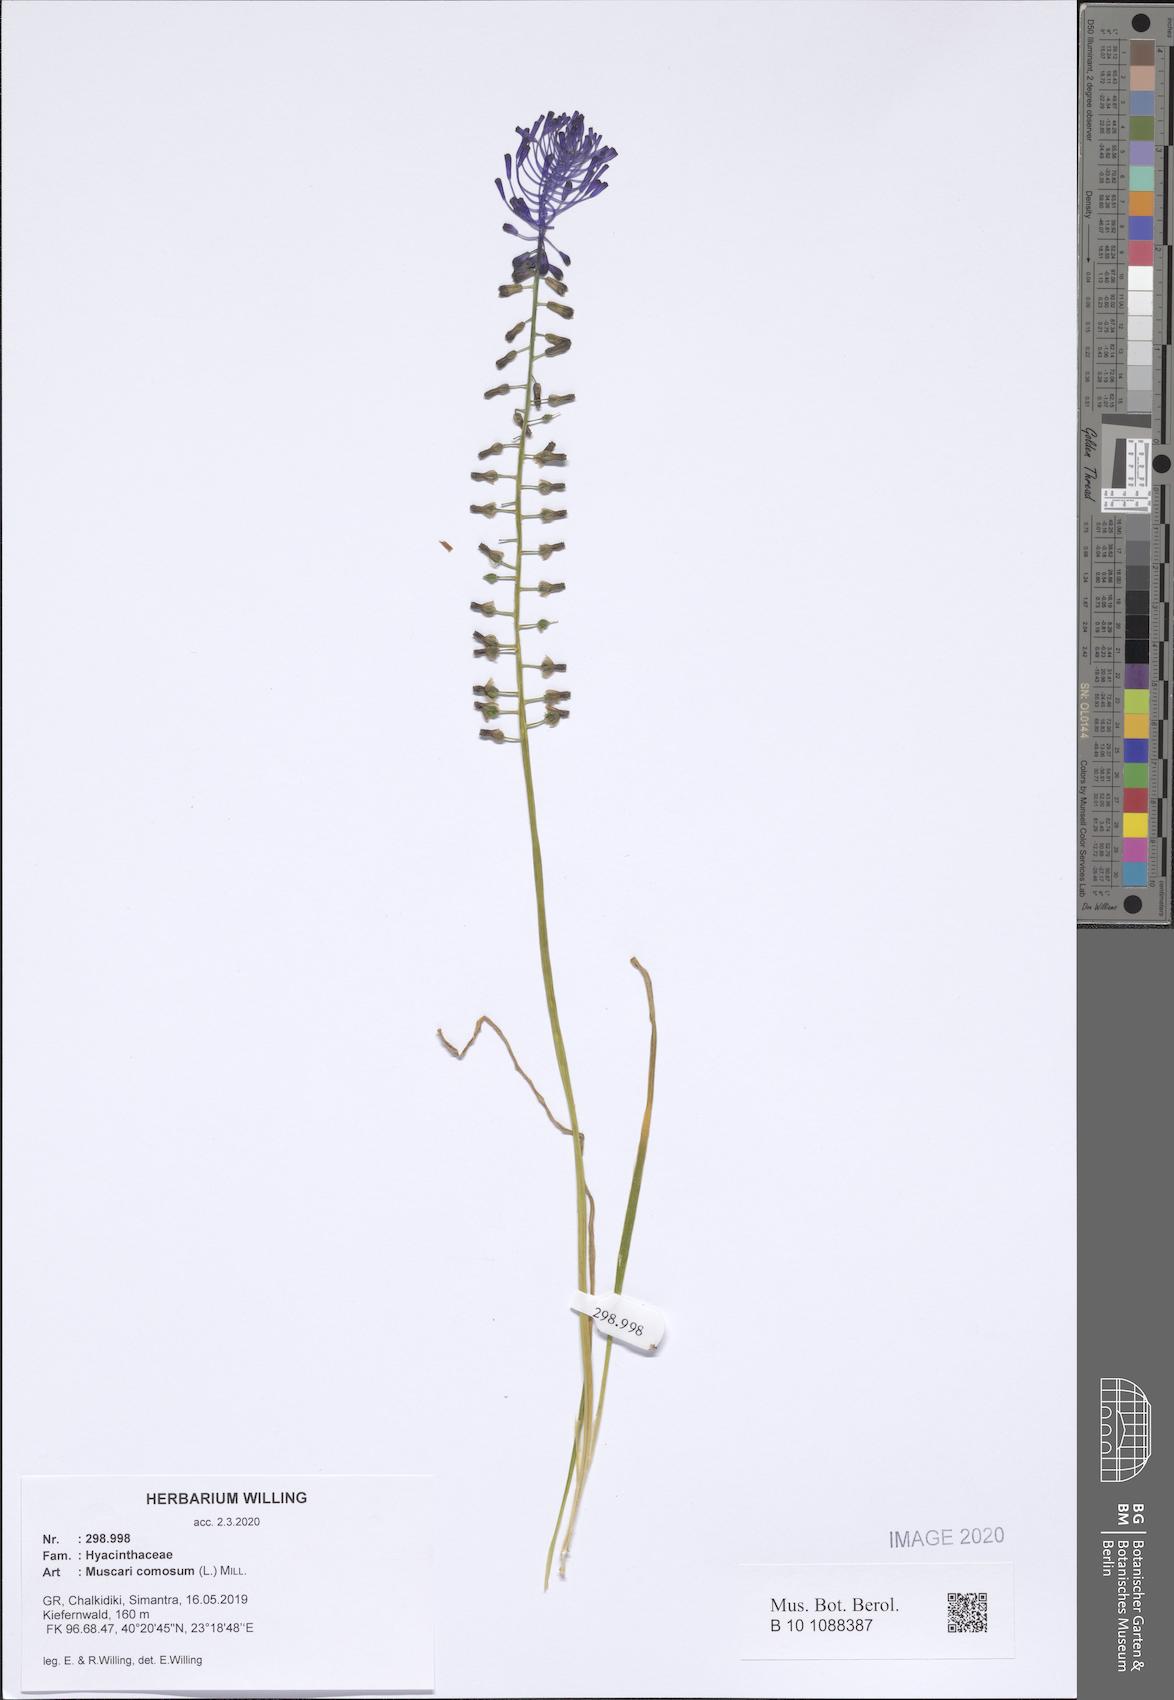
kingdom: Plantae
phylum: Tracheophyta
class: Liliopsida
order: Asparagales
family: Asparagaceae
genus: Muscari
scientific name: Muscari comosum
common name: Tassel hyacinth
